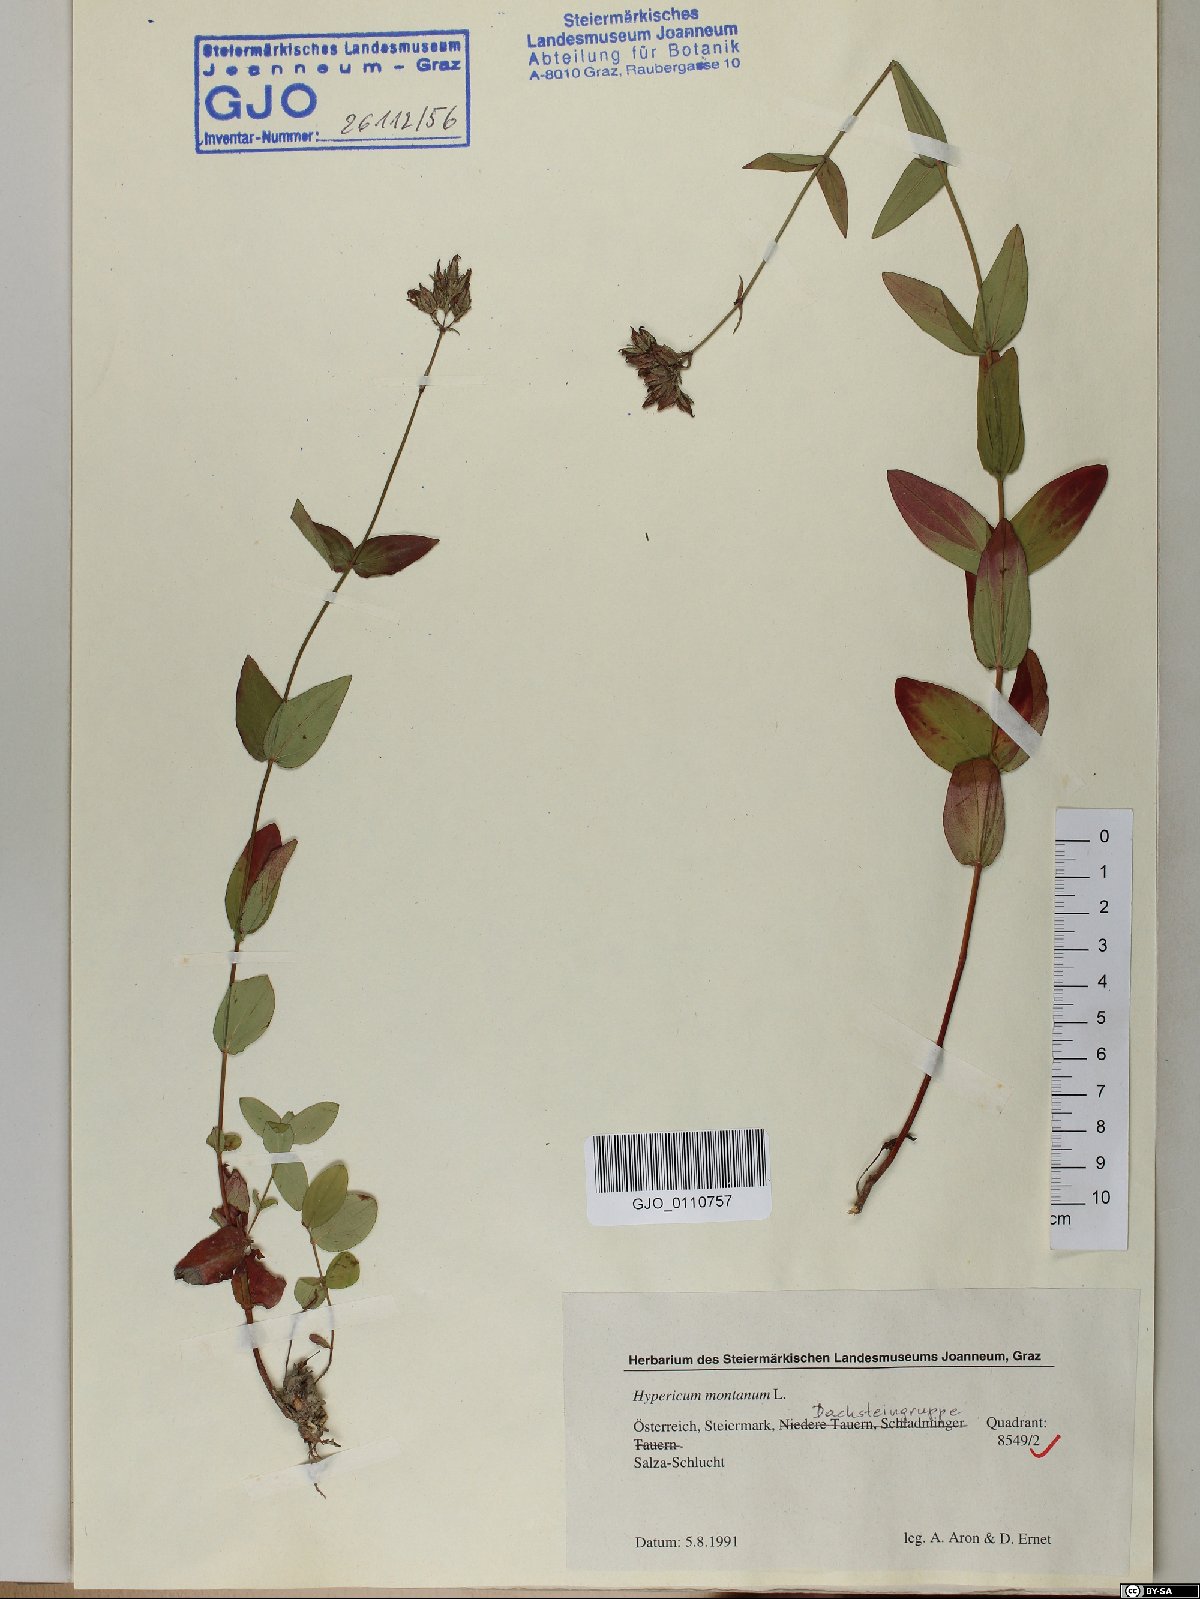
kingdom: Plantae
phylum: Tracheophyta
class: Magnoliopsida
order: Malpighiales
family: Hypericaceae
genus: Hypericum
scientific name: Hypericum montanum
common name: Pale st. john's-wort
